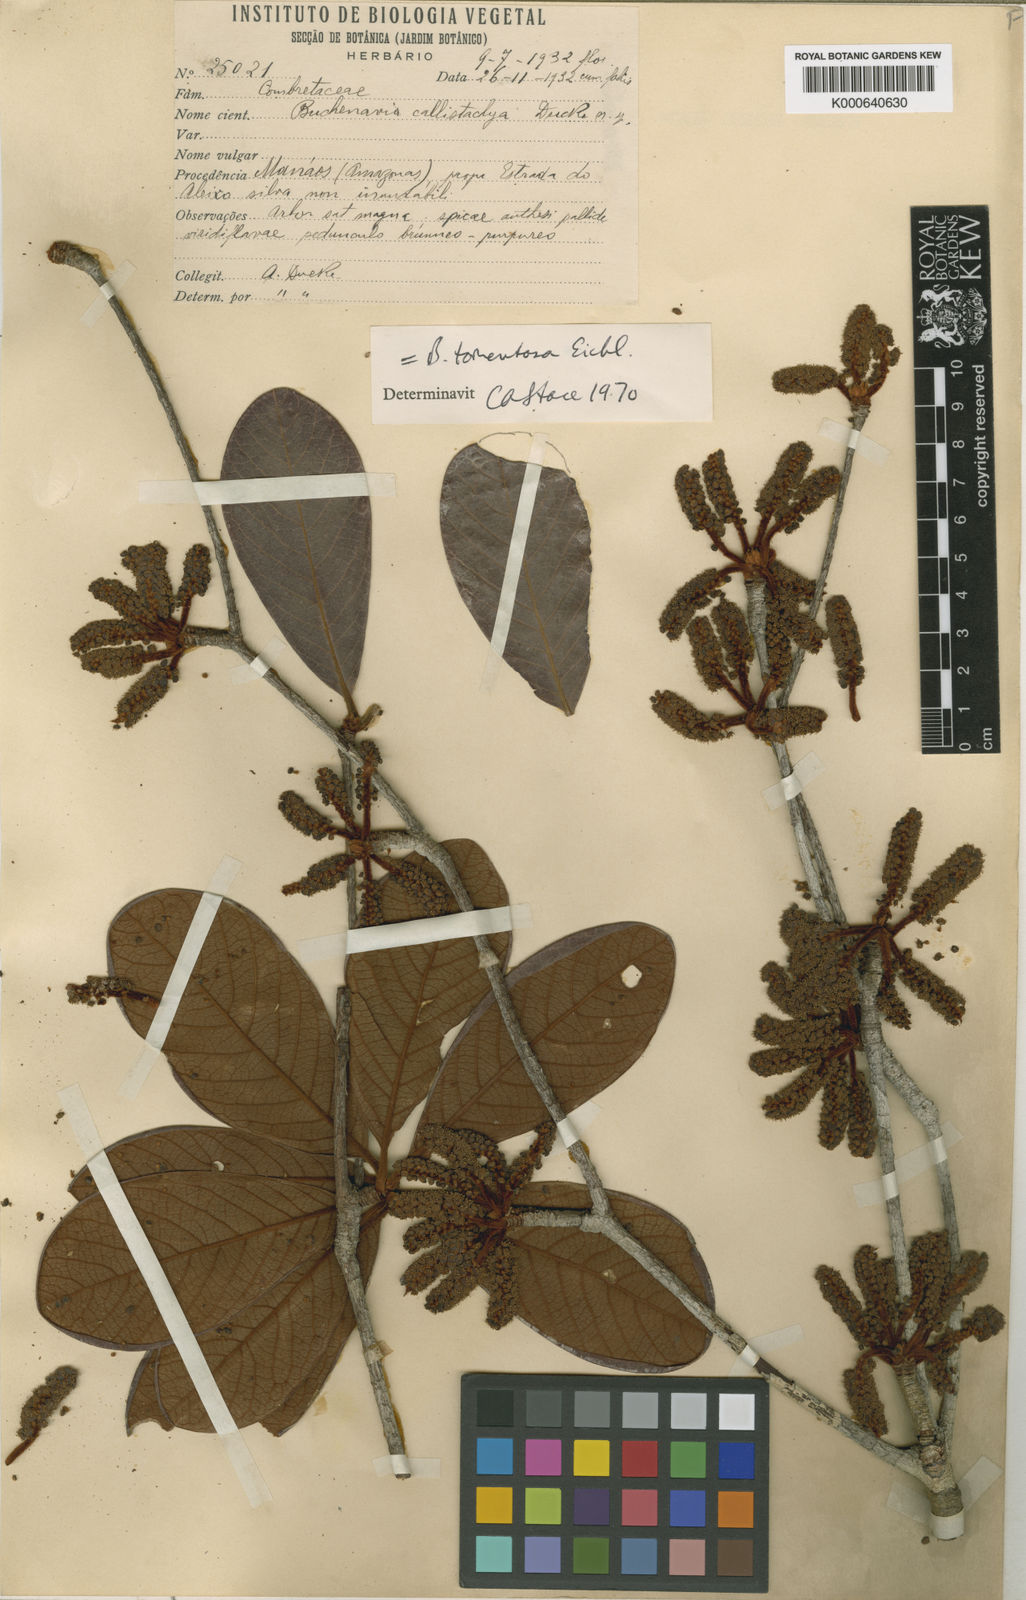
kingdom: Plantae
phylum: Tracheophyta
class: Magnoliopsida
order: Myrtales
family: Combretaceae
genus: Terminalia
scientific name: Terminalia corrugata
